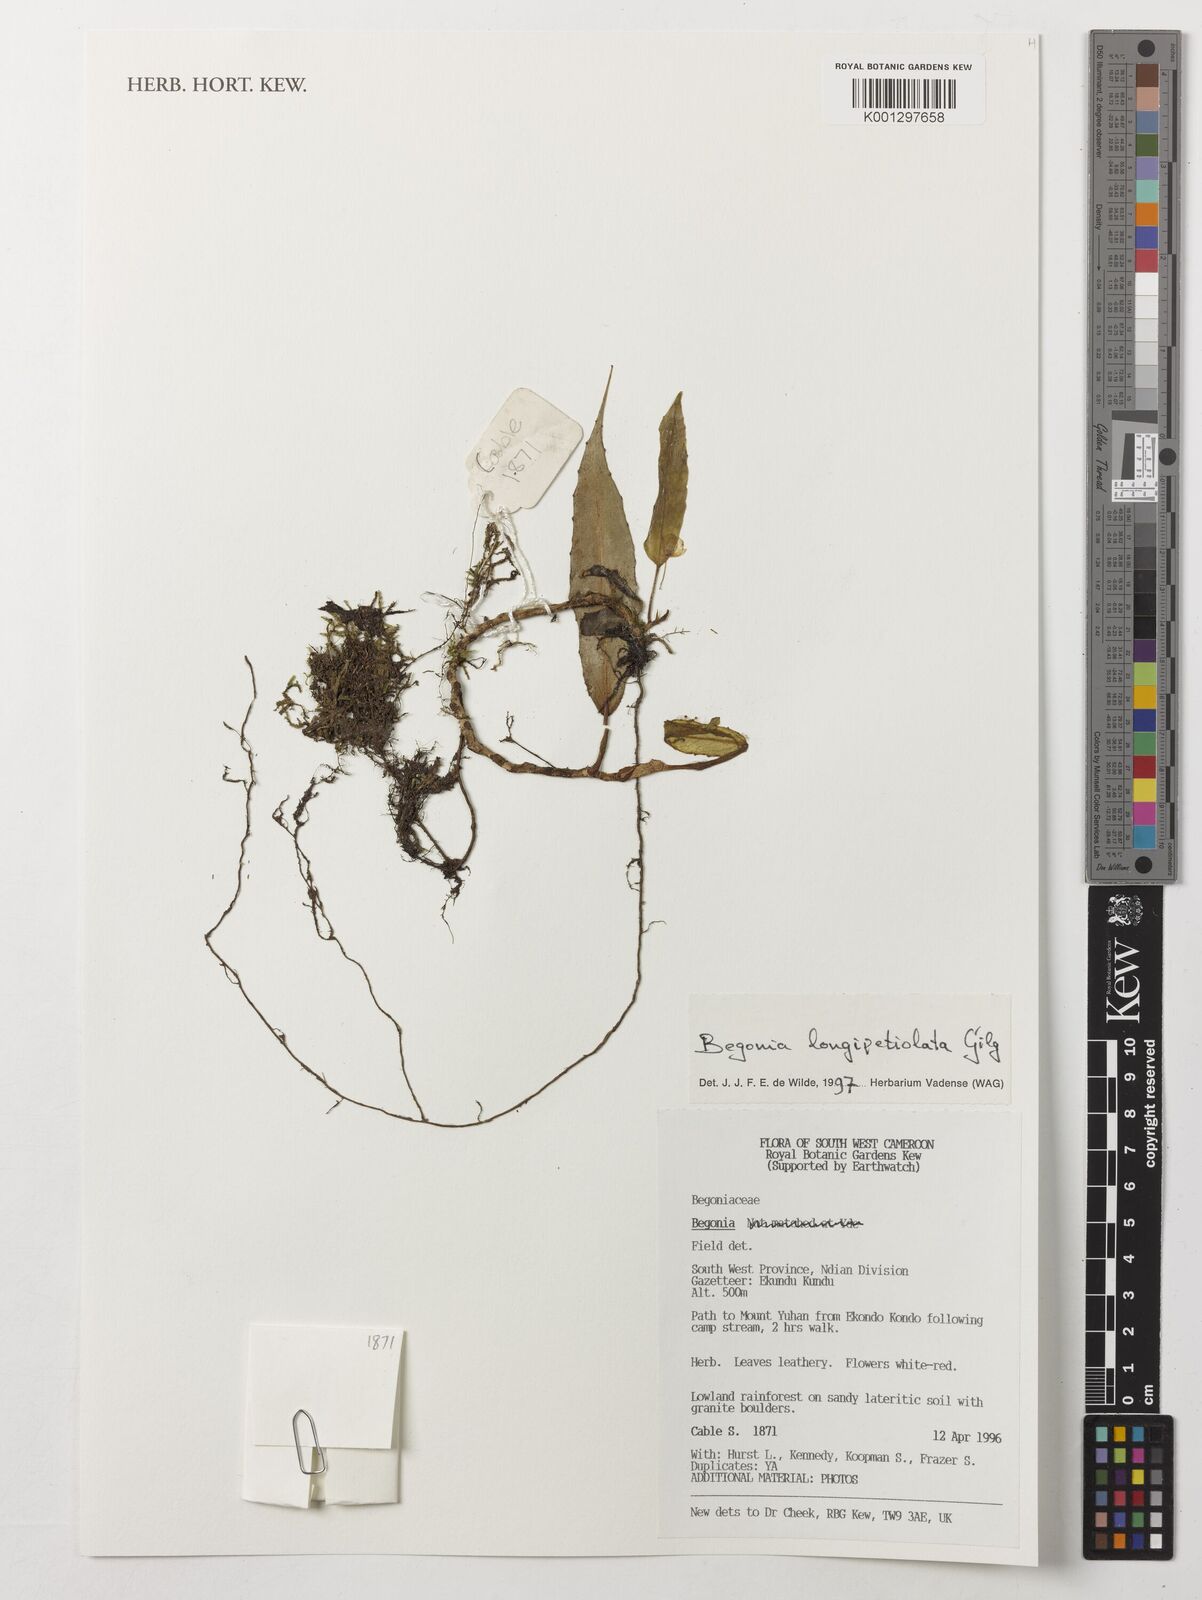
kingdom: Plantae
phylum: Tracheophyta
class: Magnoliopsida
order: Cucurbitales
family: Begoniaceae
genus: Begonia
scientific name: Begonia longipetiolata
